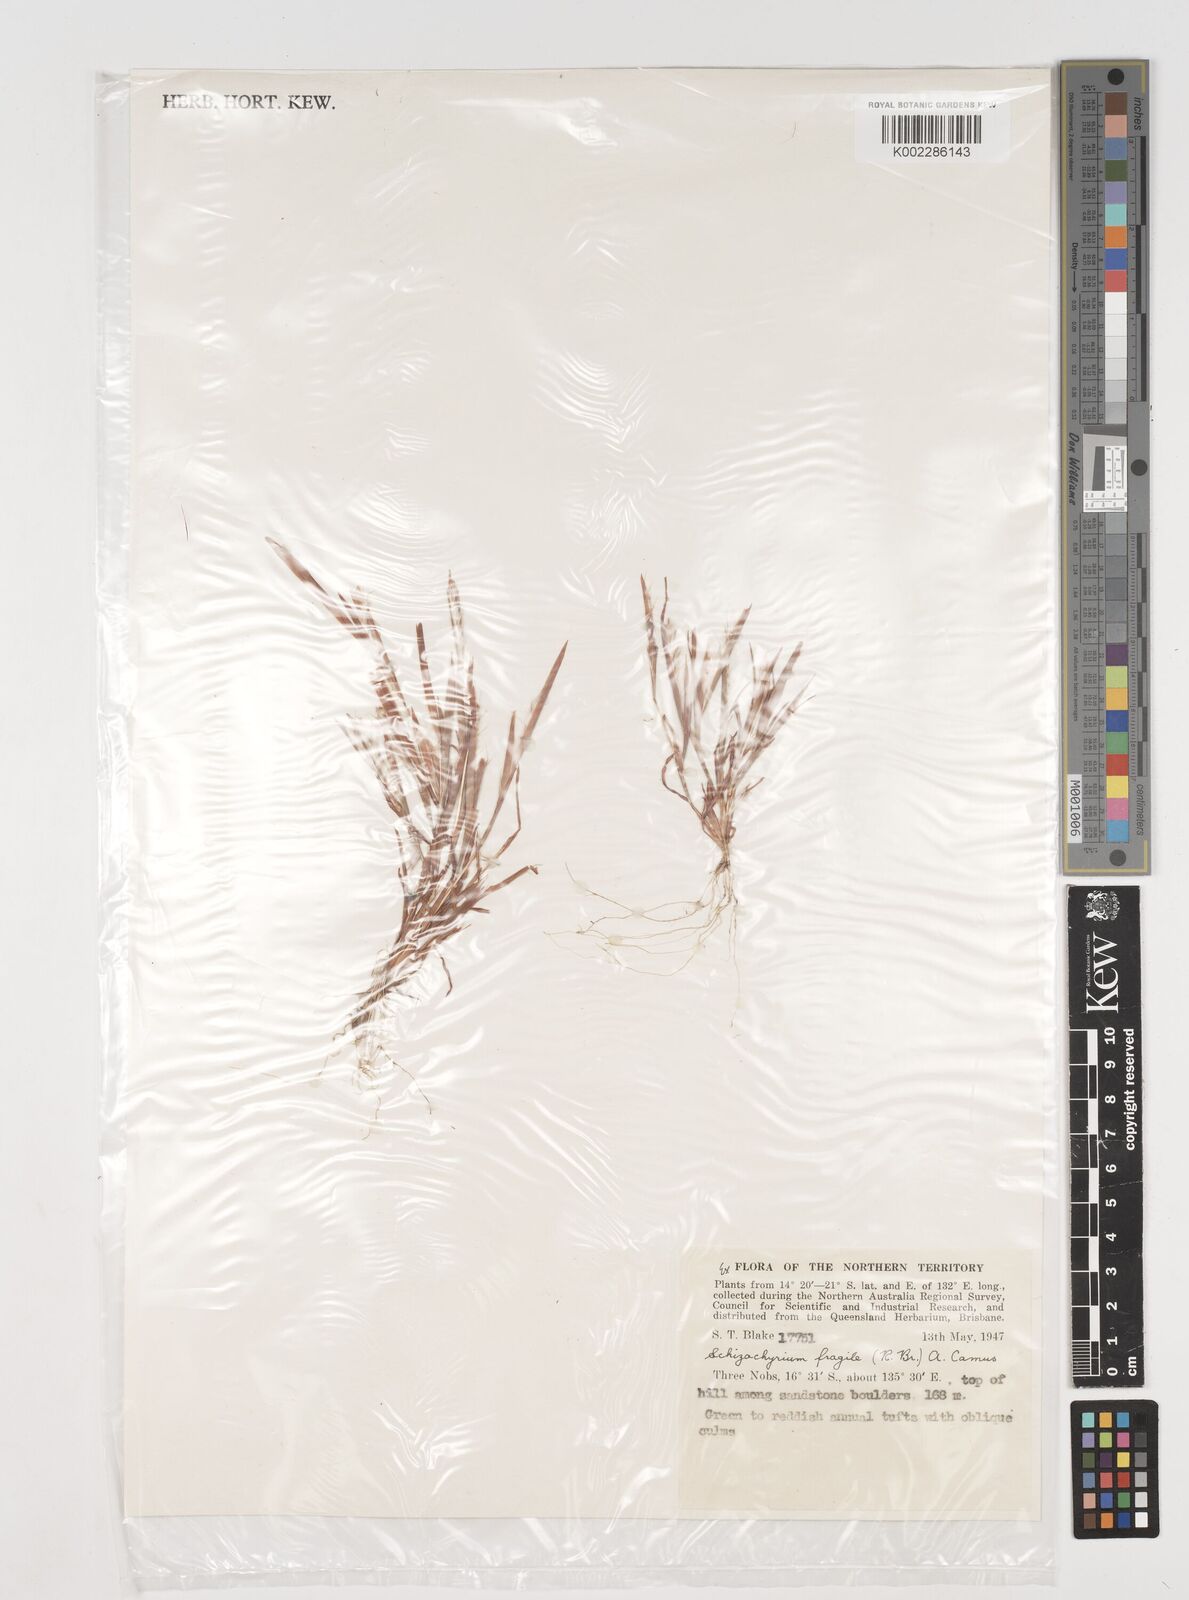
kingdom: Plantae
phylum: Tracheophyta
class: Liliopsida
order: Poales
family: Poaceae
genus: Schizachyrium
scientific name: Schizachyrium fragile
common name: Red spathe grass
